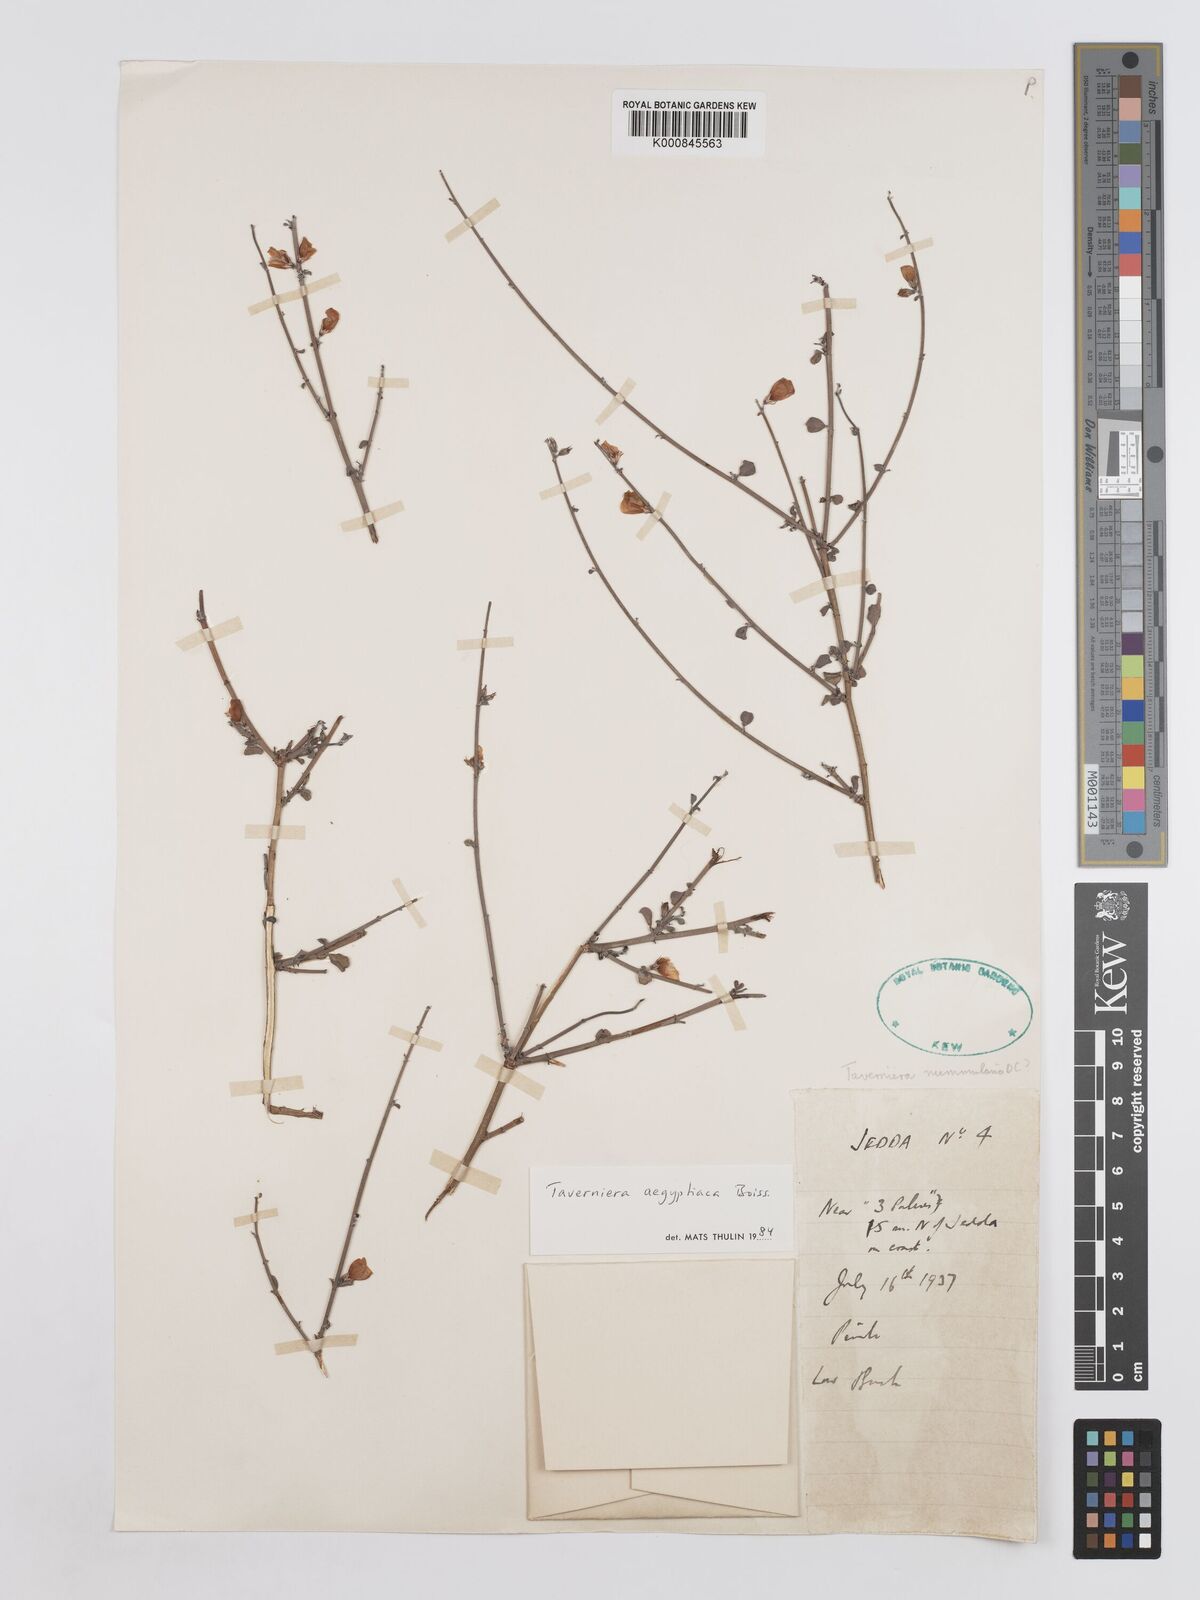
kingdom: Plantae
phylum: Tracheophyta
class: Magnoliopsida
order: Fabales
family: Fabaceae
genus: Taverniera
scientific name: Taverniera aegyptiaca
